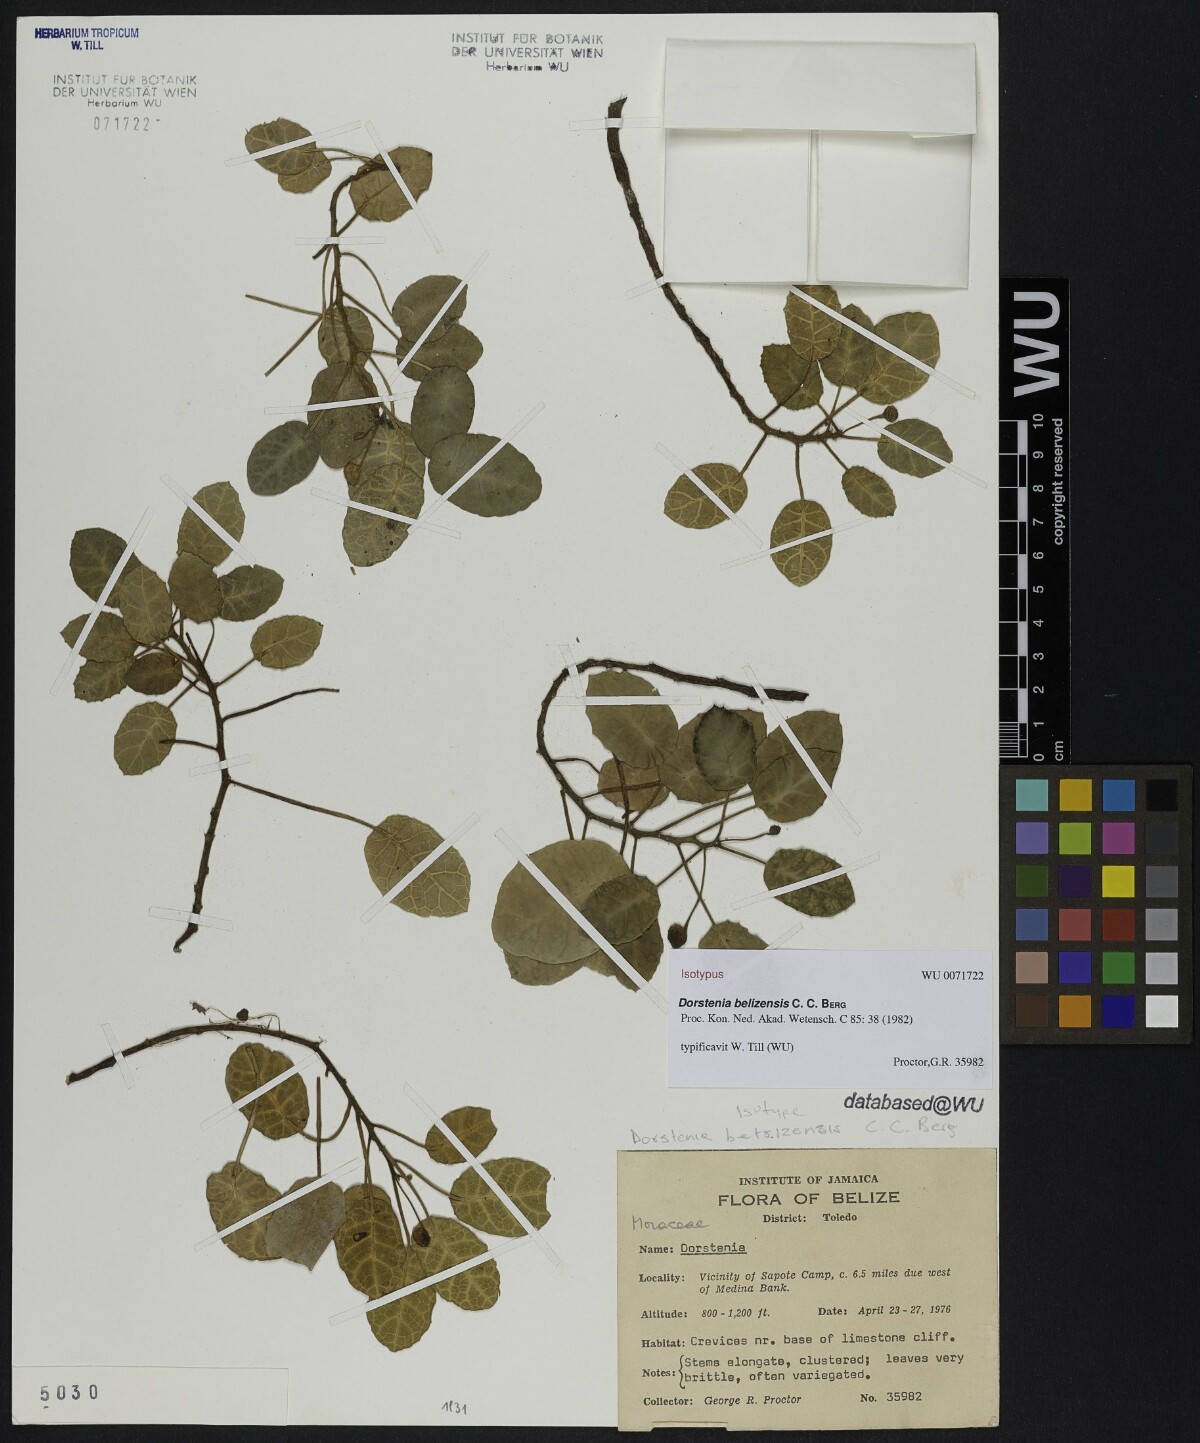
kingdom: Plantae
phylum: Tracheophyta
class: Magnoliopsida
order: Rosales
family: Moraceae
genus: Dorstenia
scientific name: Dorstenia belizensis
